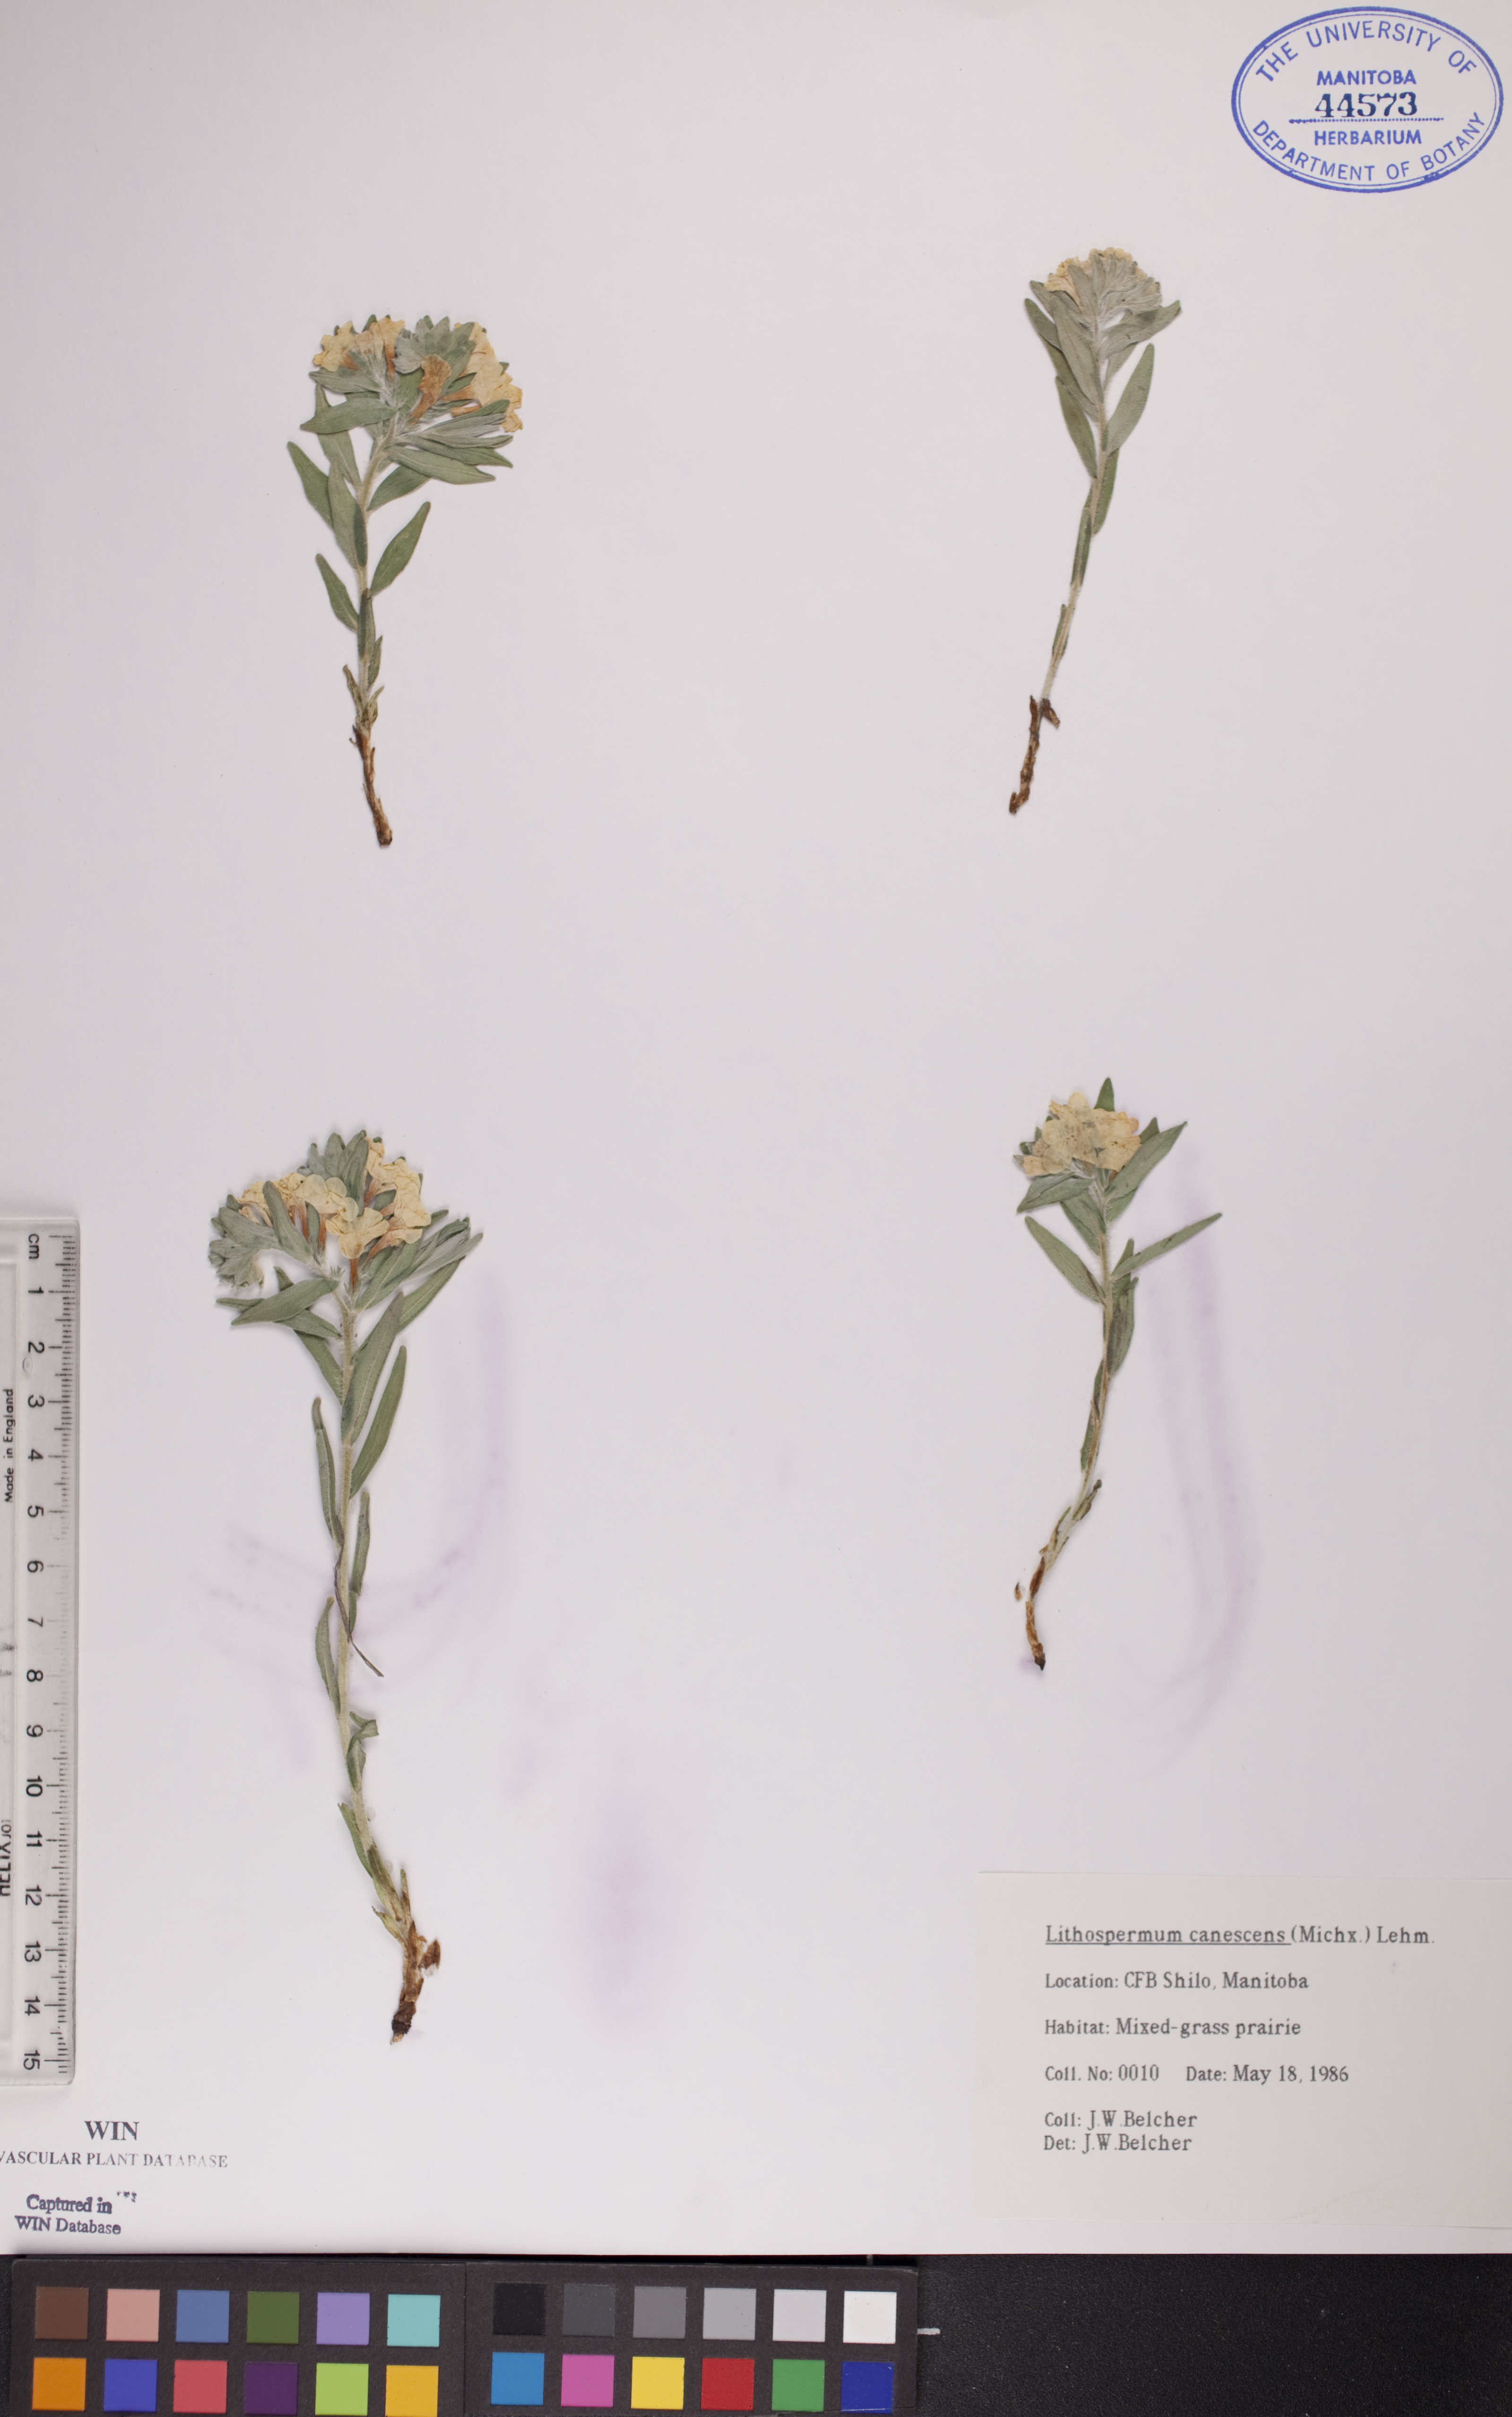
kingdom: Plantae
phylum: Tracheophyta
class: Magnoliopsida
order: Boraginales
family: Boraginaceae
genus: Lithospermum
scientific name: Lithospermum canescens
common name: Hoary puccoon
